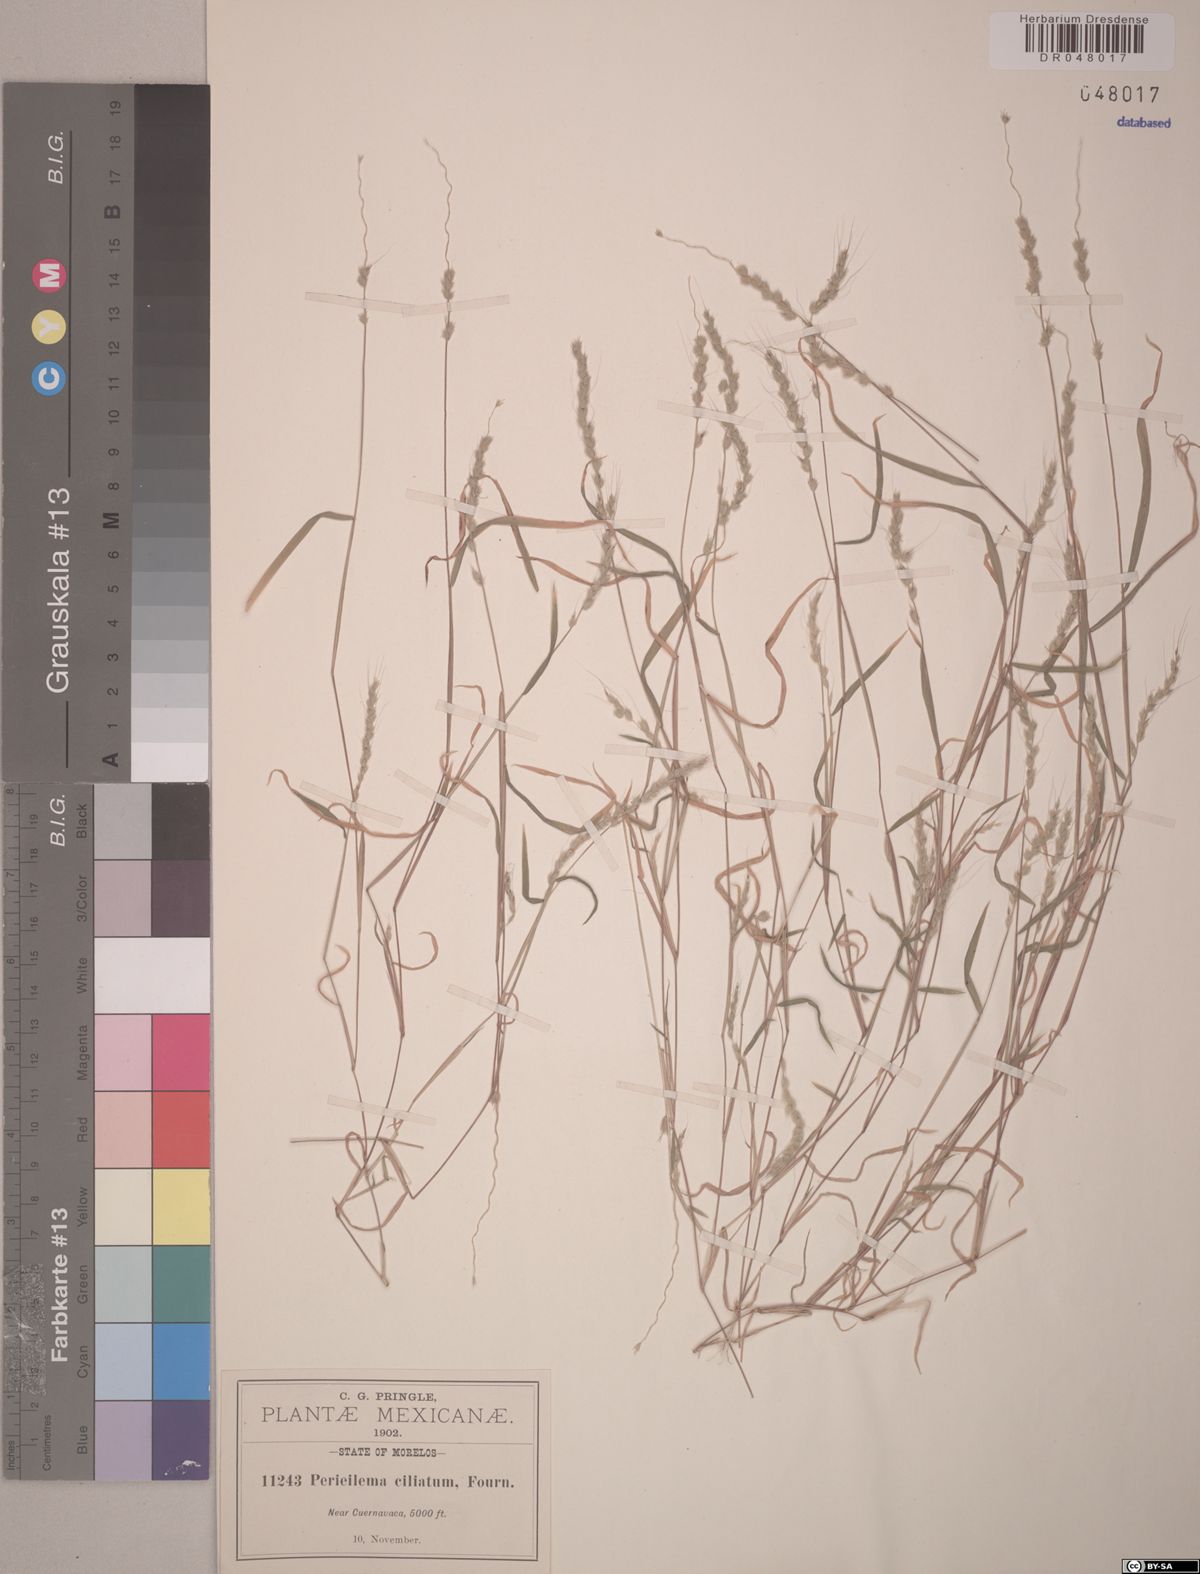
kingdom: Plantae
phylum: Tracheophyta
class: Liliopsida
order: Poales
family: Poaceae
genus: Muhlenbergia
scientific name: Muhlenbergia plumiseta
